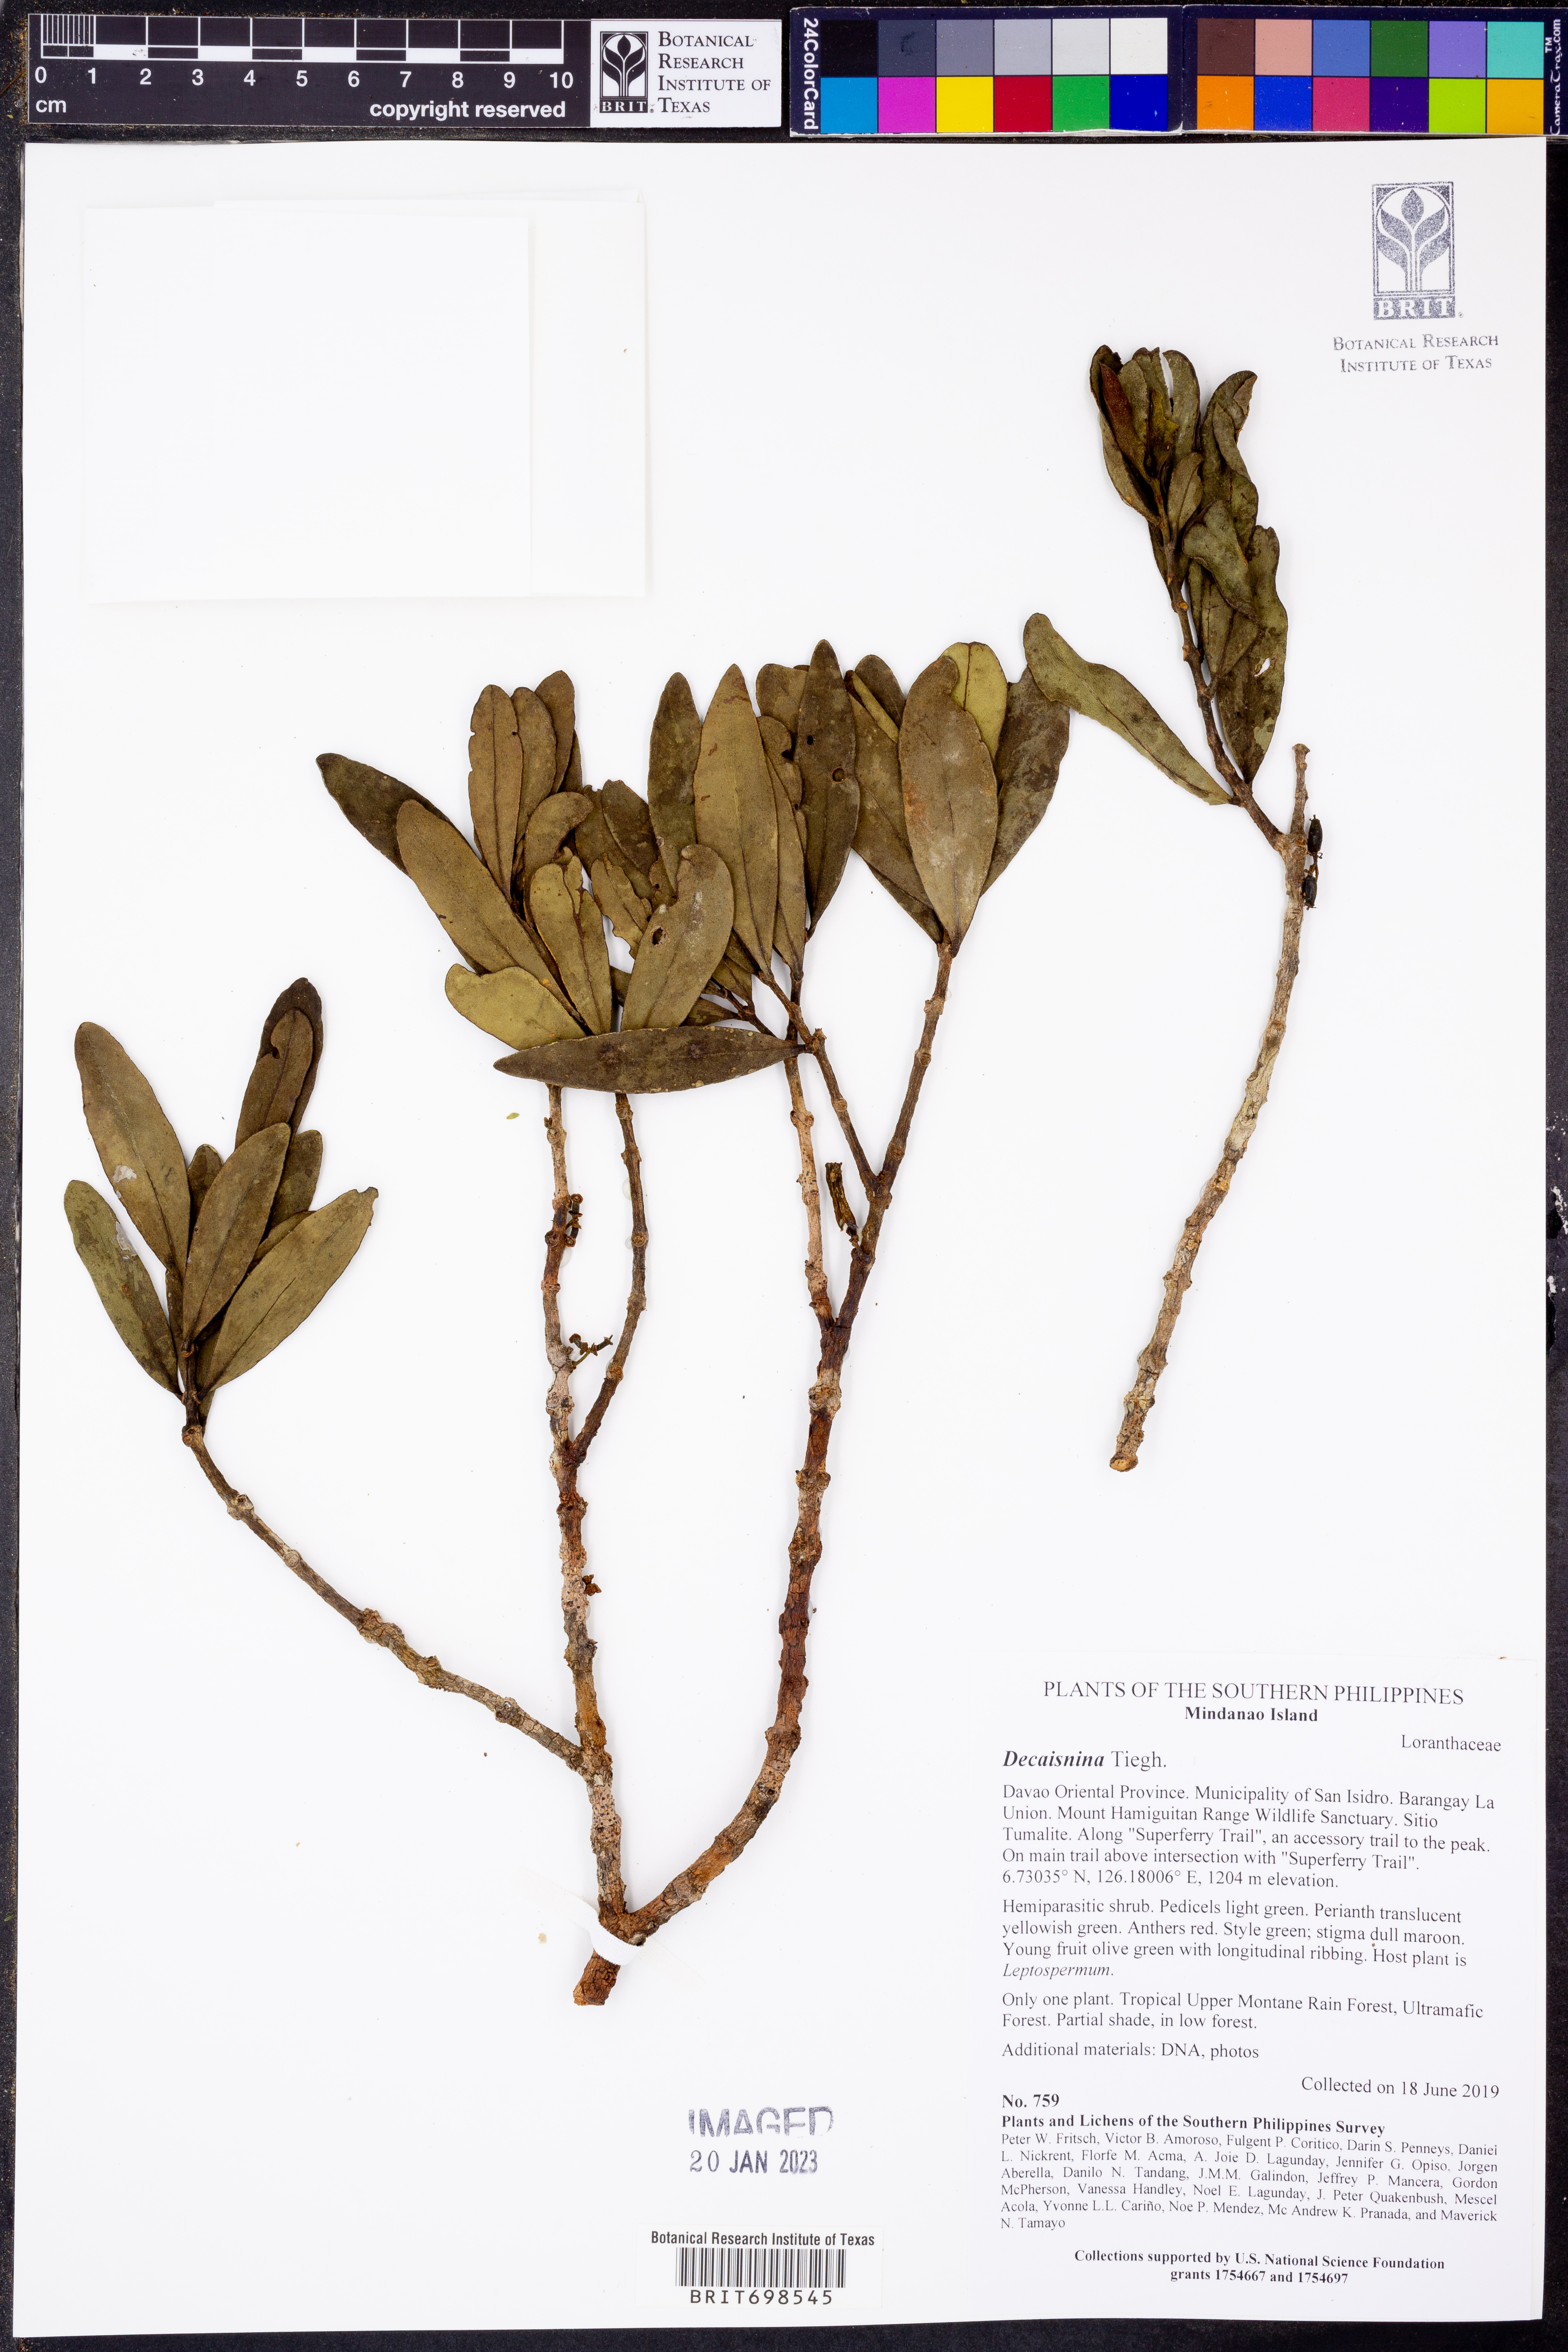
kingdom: Plantae
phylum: Tracheophyta
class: Magnoliopsida
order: Santalales
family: Loranthaceae
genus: Macrosolen
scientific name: Macrosolen
